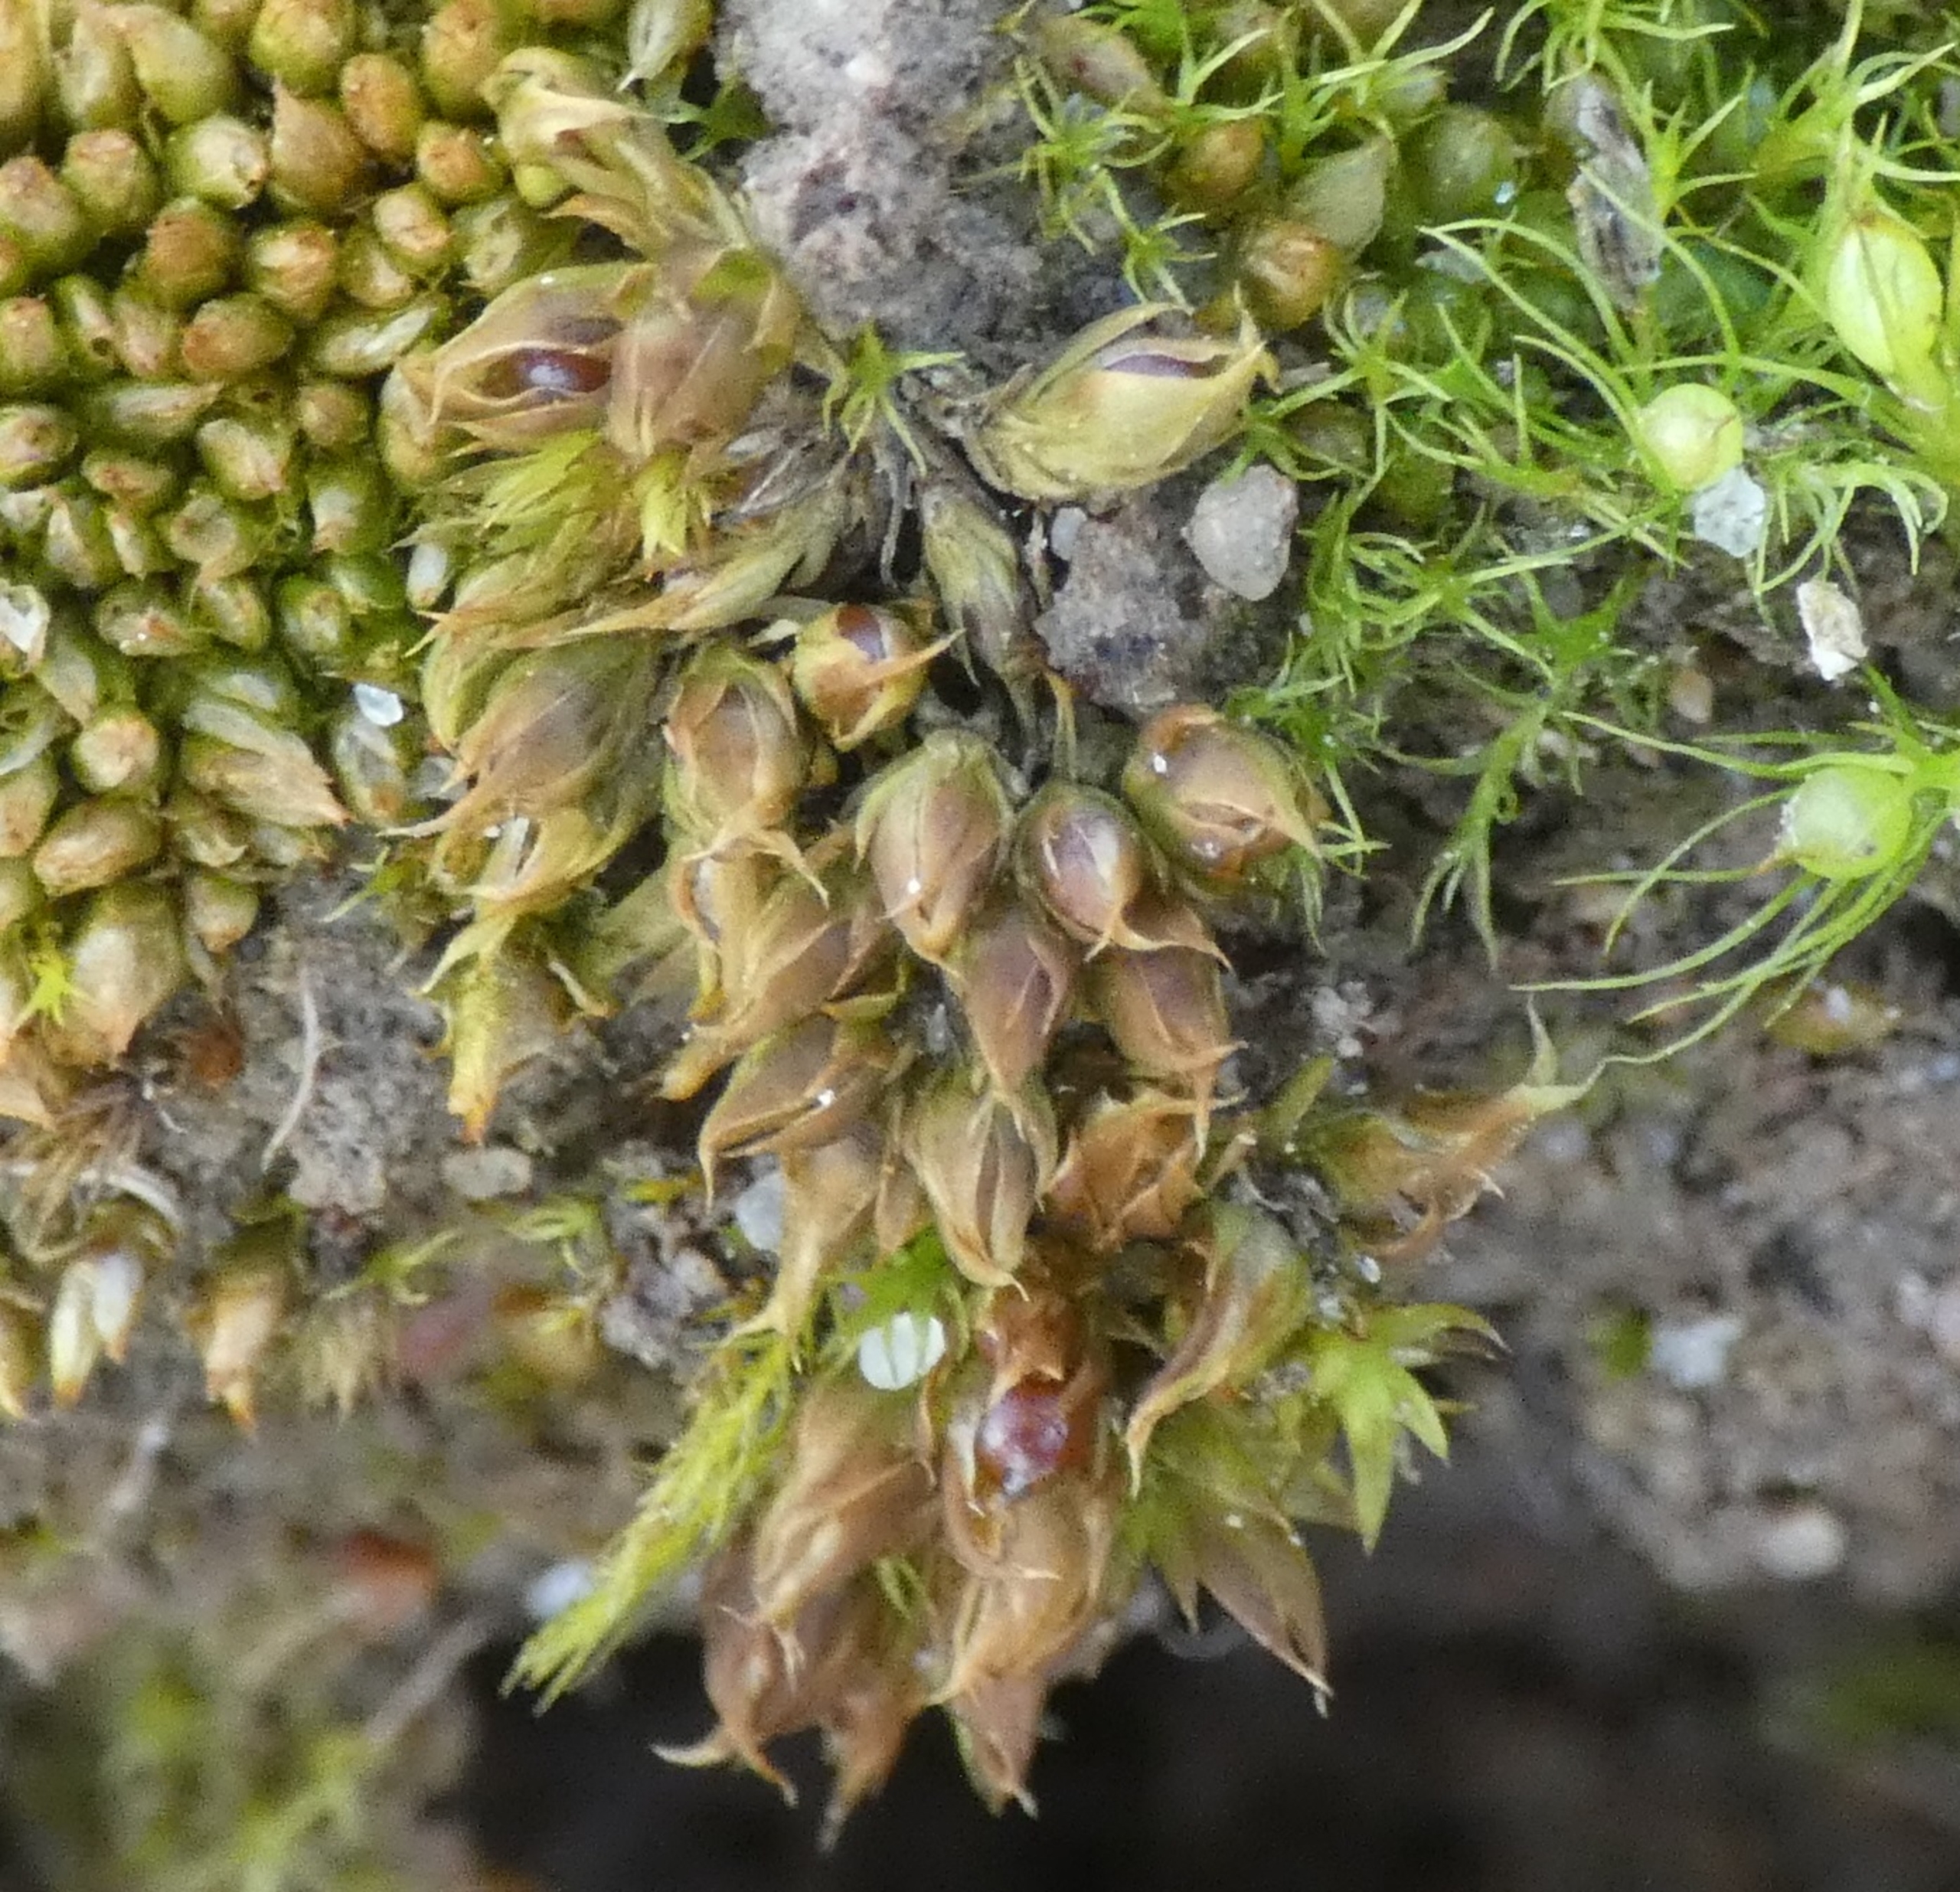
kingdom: Plantae
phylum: Bryophyta
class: Bryopsida
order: Pottiales
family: Pottiaceae
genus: Tortula
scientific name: Tortula acaulon
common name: Tilspidset dværgmos
